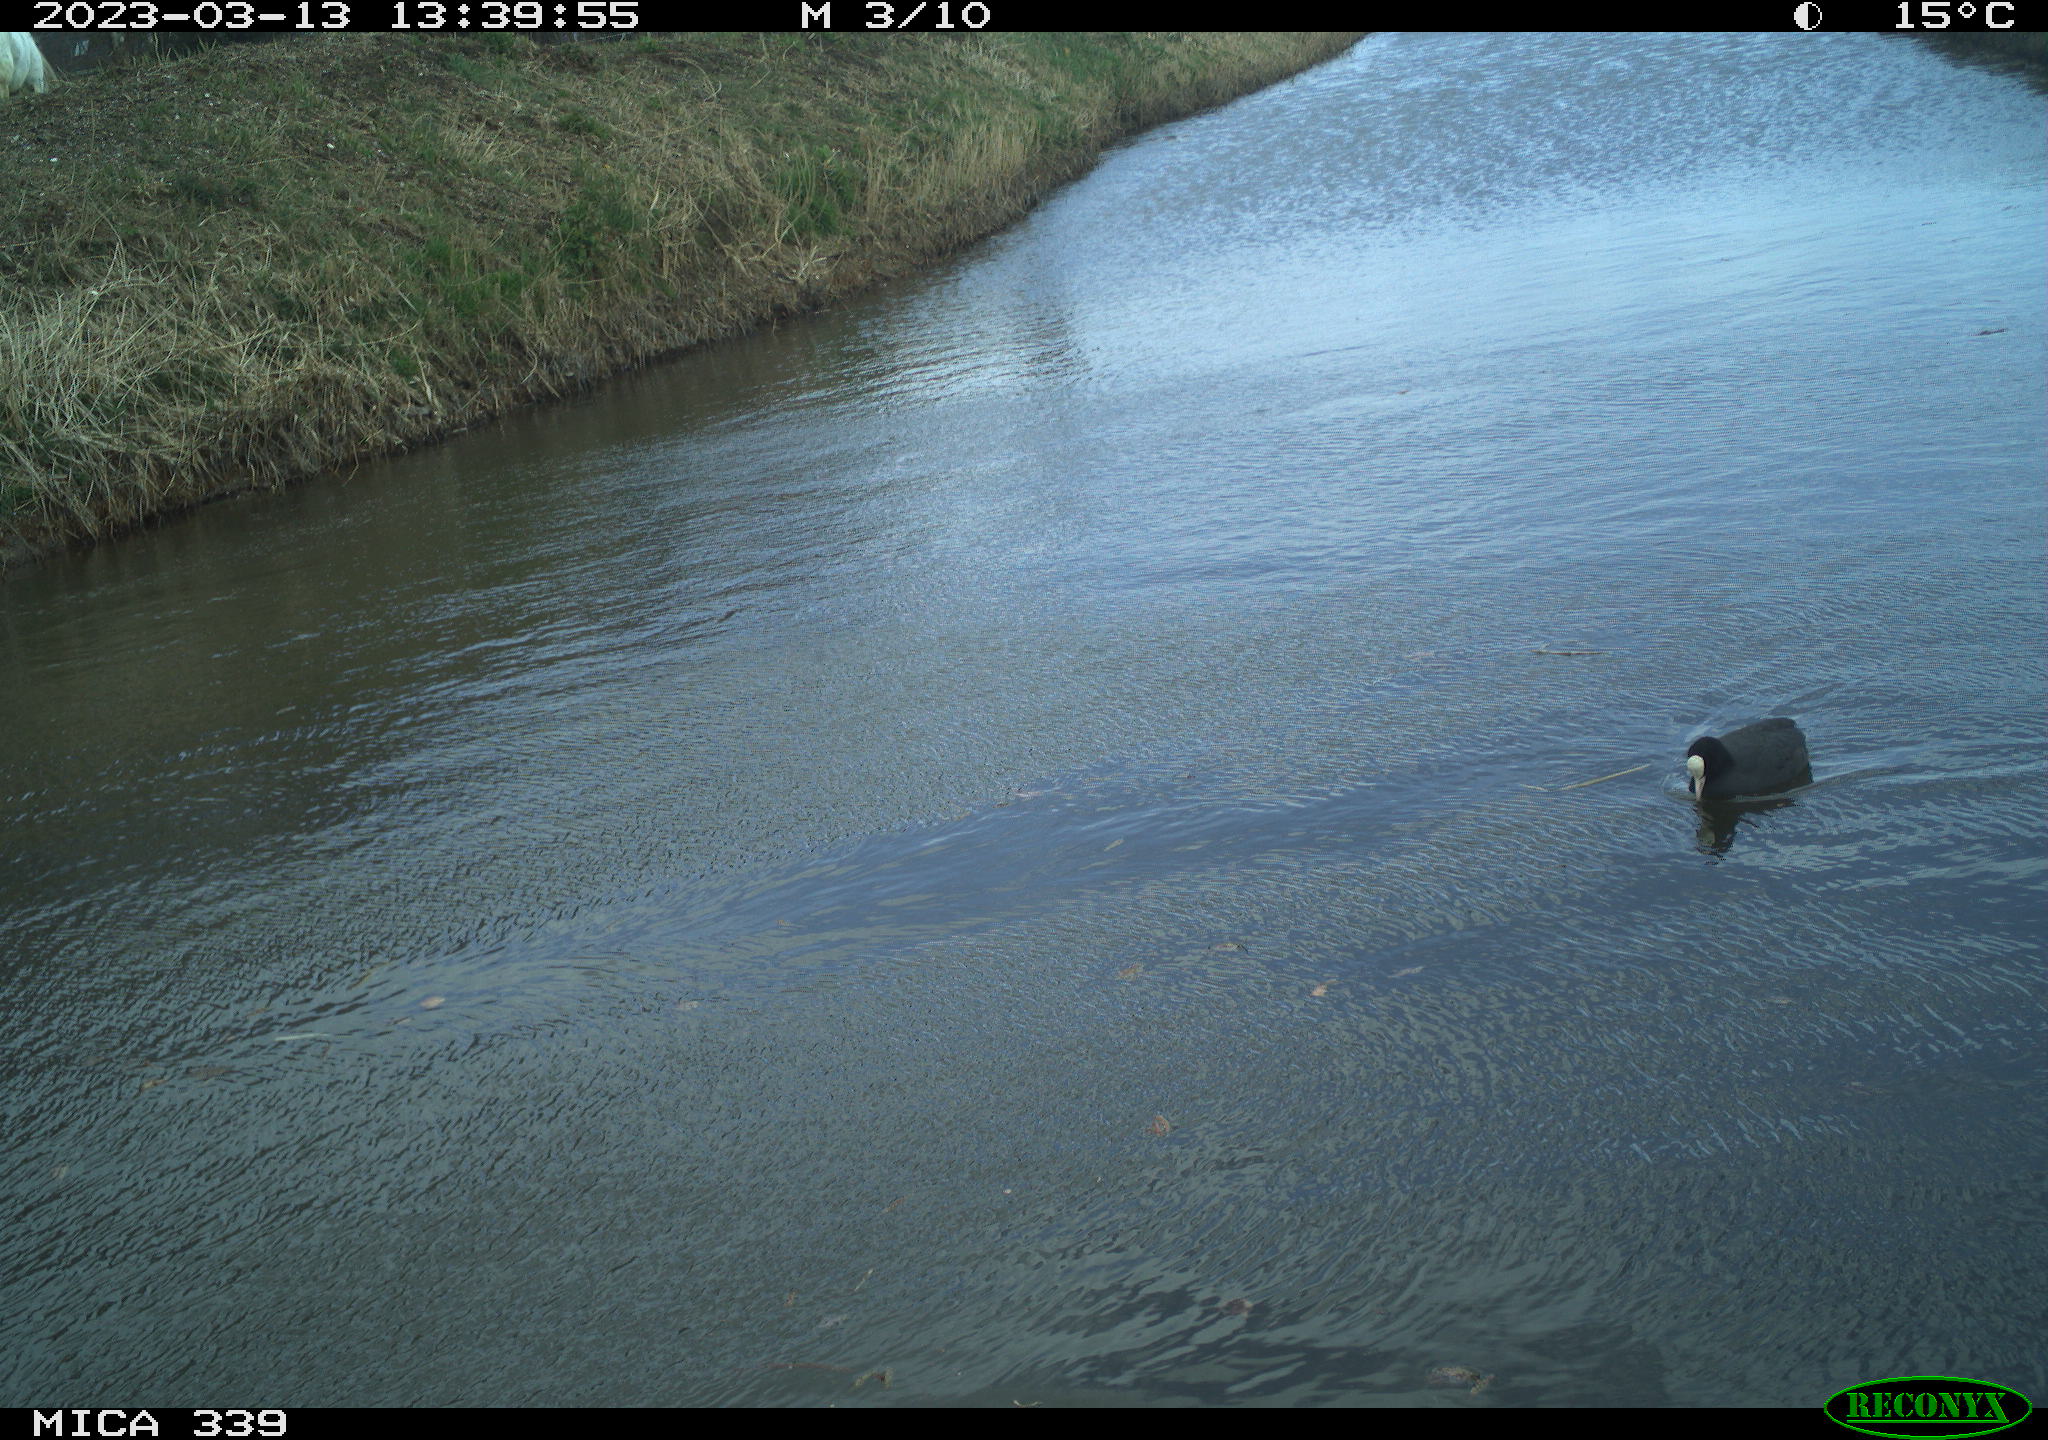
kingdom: Animalia
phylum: Chordata
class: Aves
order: Gruiformes
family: Rallidae
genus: Fulica
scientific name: Fulica atra
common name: Eurasian coot
